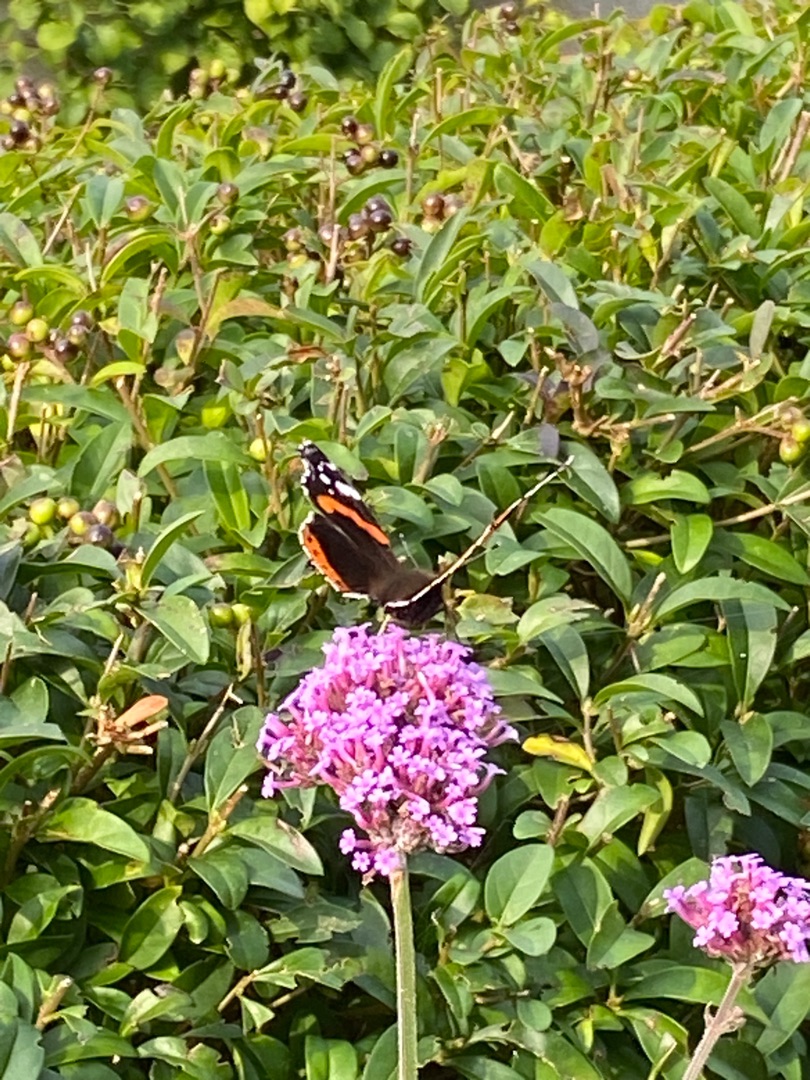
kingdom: Animalia
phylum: Arthropoda
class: Insecta
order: Lepidoptera
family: Nymphalidae
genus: Vanessa
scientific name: Vanessa atalanta
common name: Admiral
